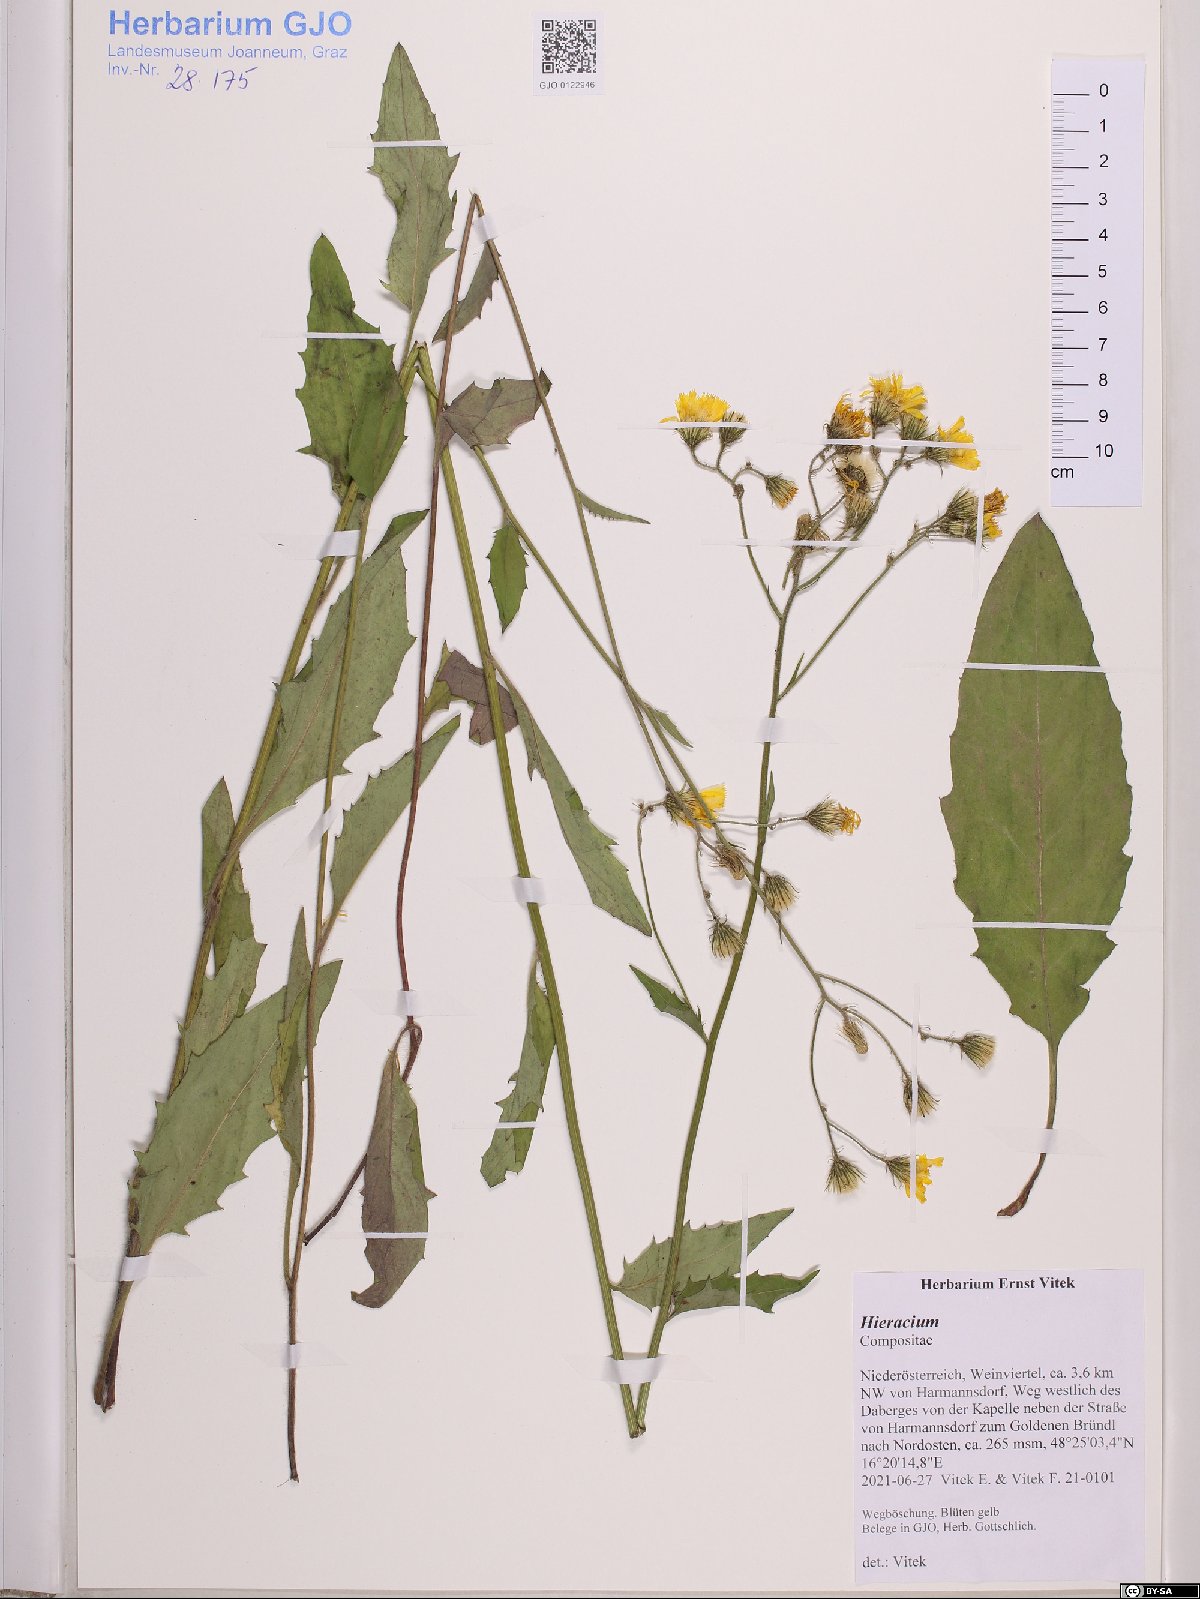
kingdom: Plantae
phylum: Tracheophyta
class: Magnoliopsida
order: Asterales
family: Asteraceae
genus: Hieracium
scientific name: Hieracium
